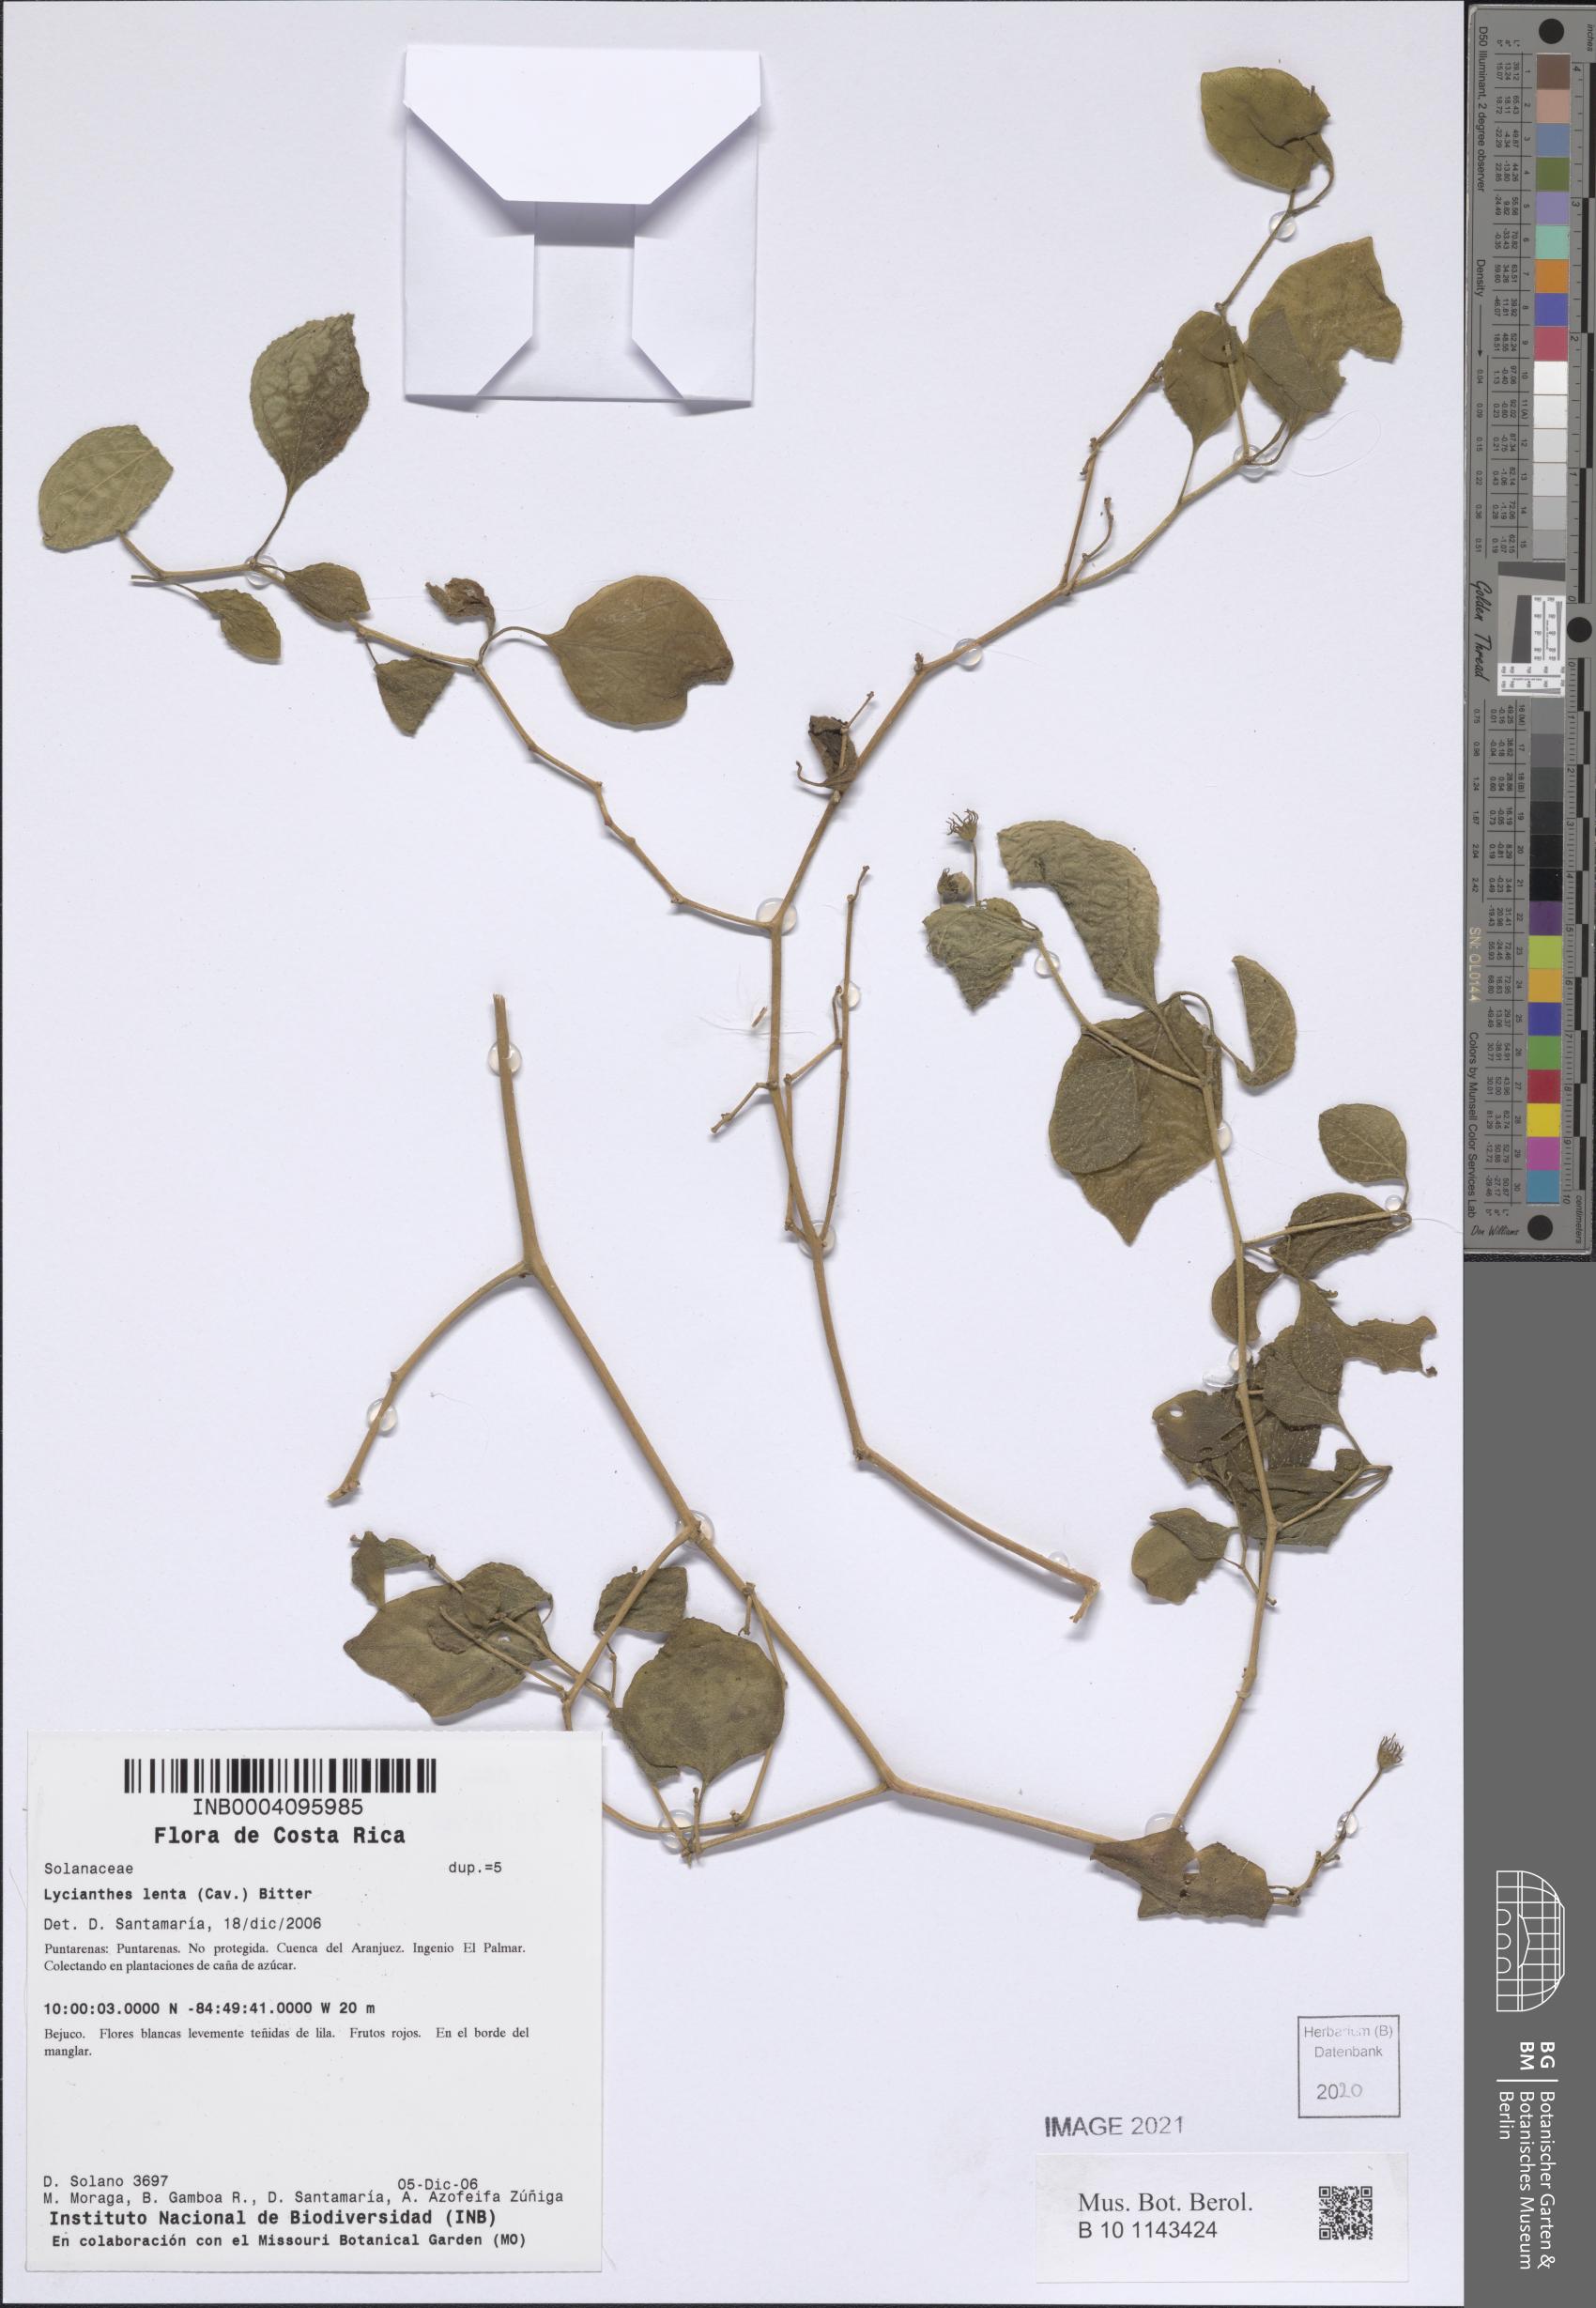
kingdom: Plantae
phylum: Tracheophyta
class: Magnoliopsida
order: Solanales
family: Solanaceae
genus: Lycianthes
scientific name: Lycianthes scandens
